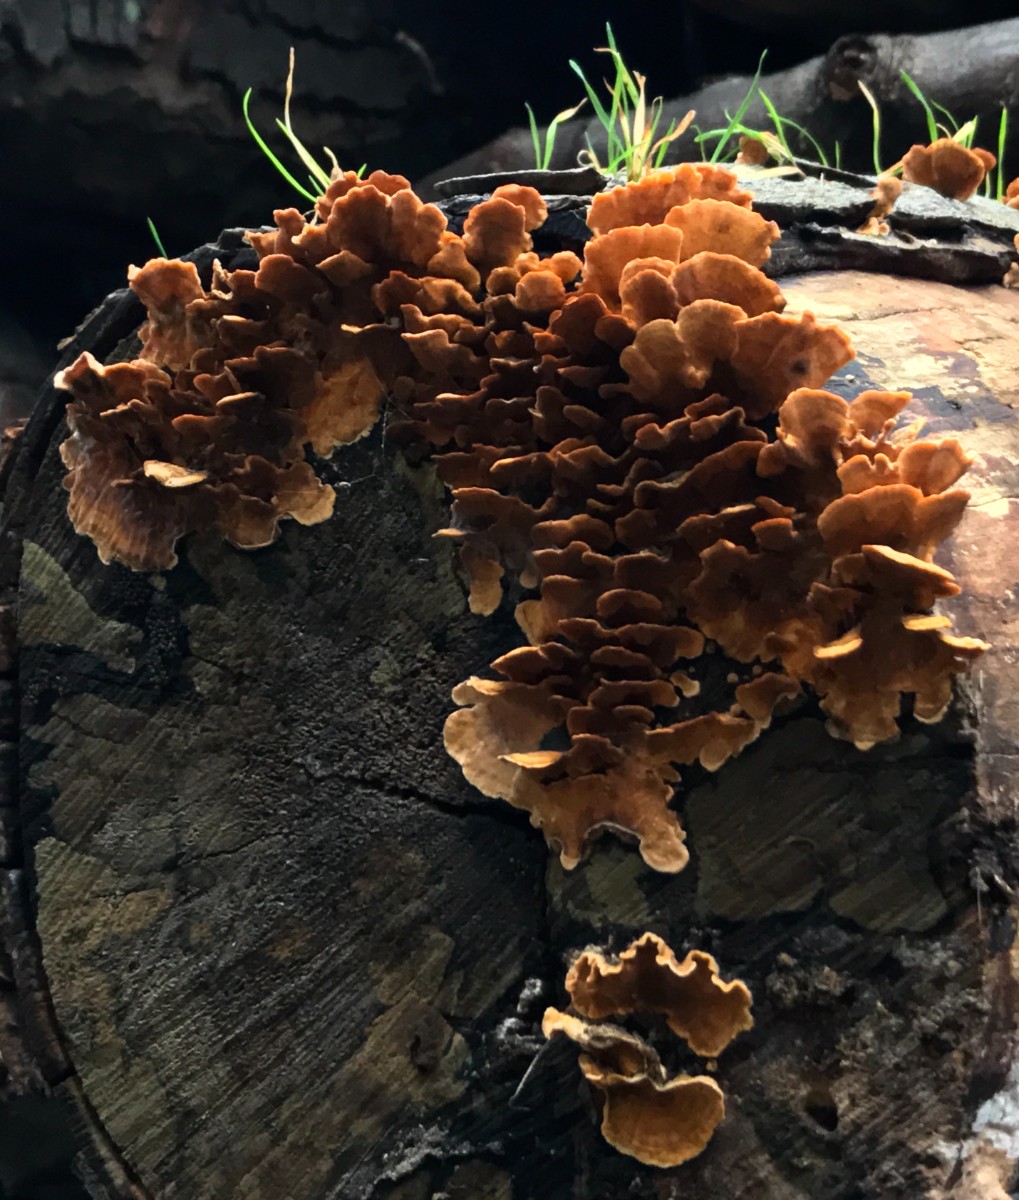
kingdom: Fungi
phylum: Basidiomycota
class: Agaricomycetes
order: Russulales
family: Stereaceae
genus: Stereum
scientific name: Stereum hirsutum
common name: håret lædersvamp
